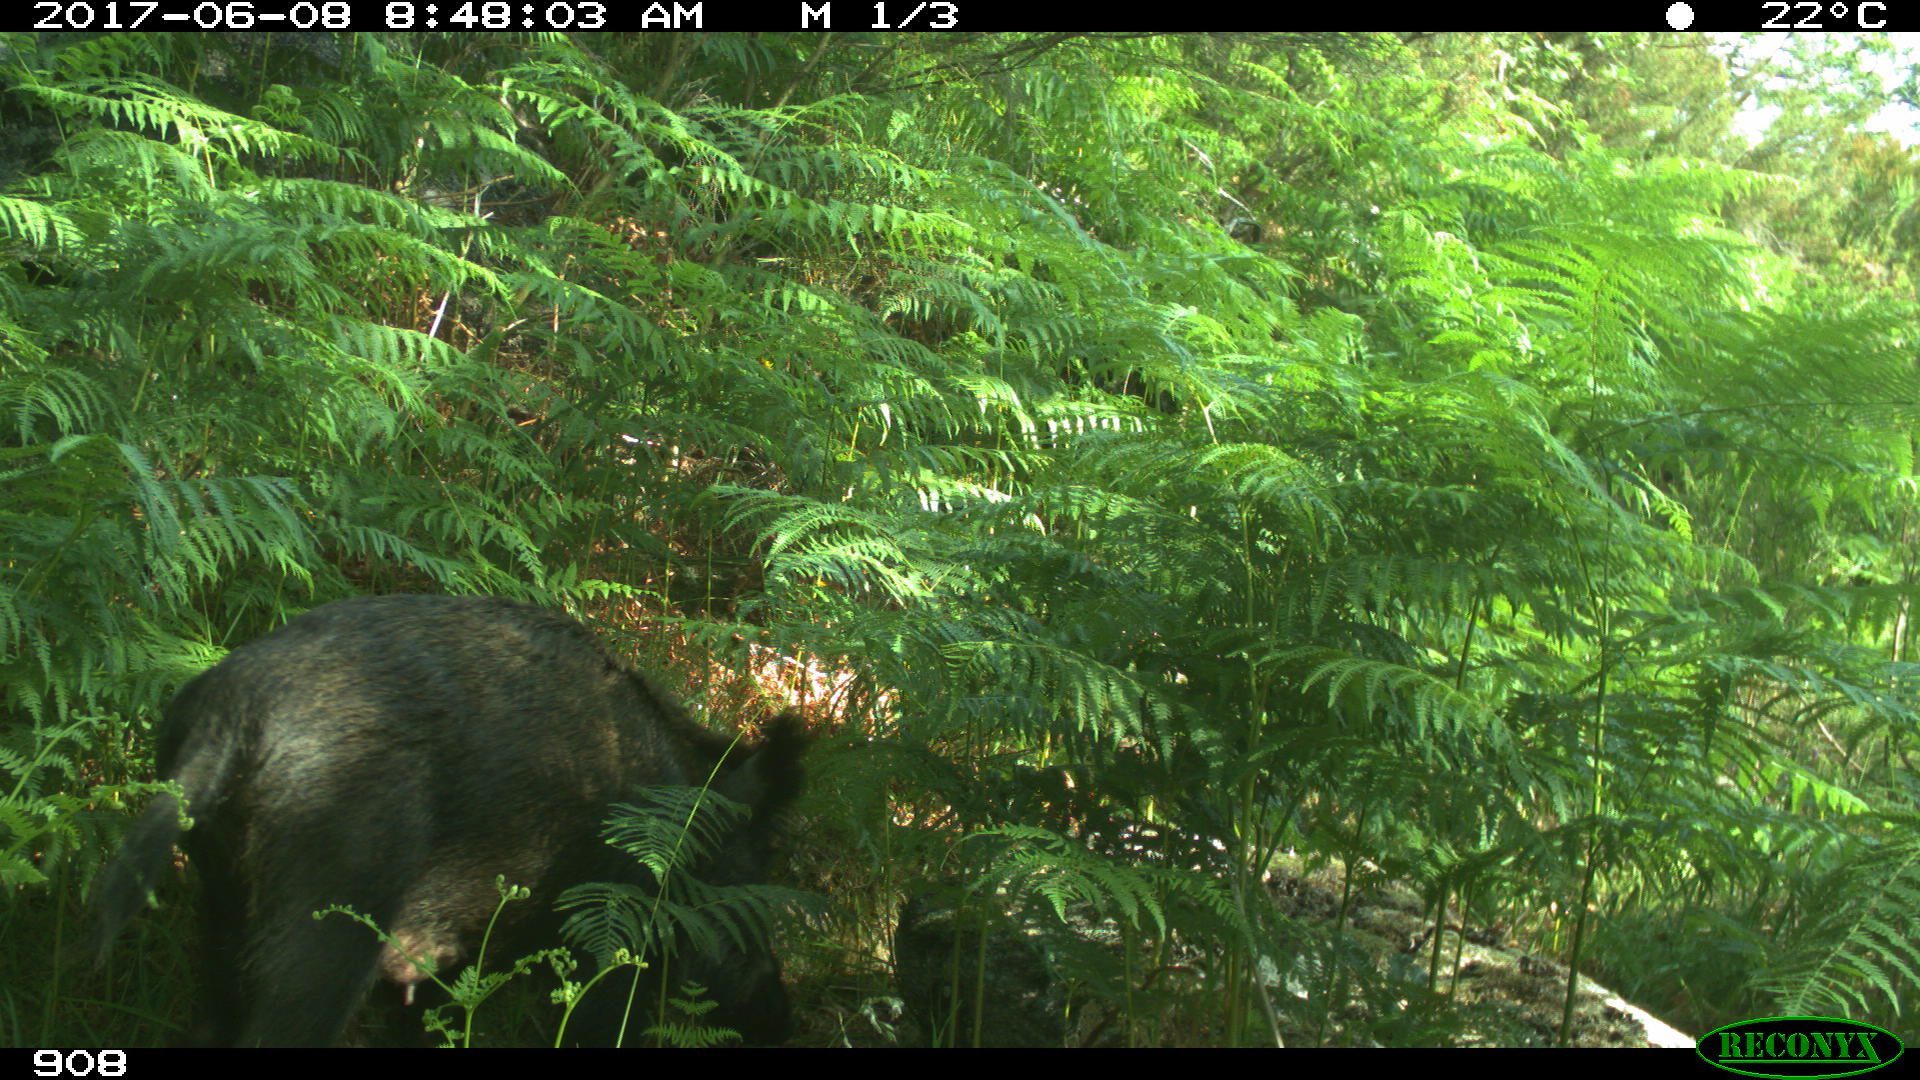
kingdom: Animalia
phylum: Chordata
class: Mammalia
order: Artiodactyla
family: Suidae
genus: Sus
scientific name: Sus scrofa
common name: Wild boar
